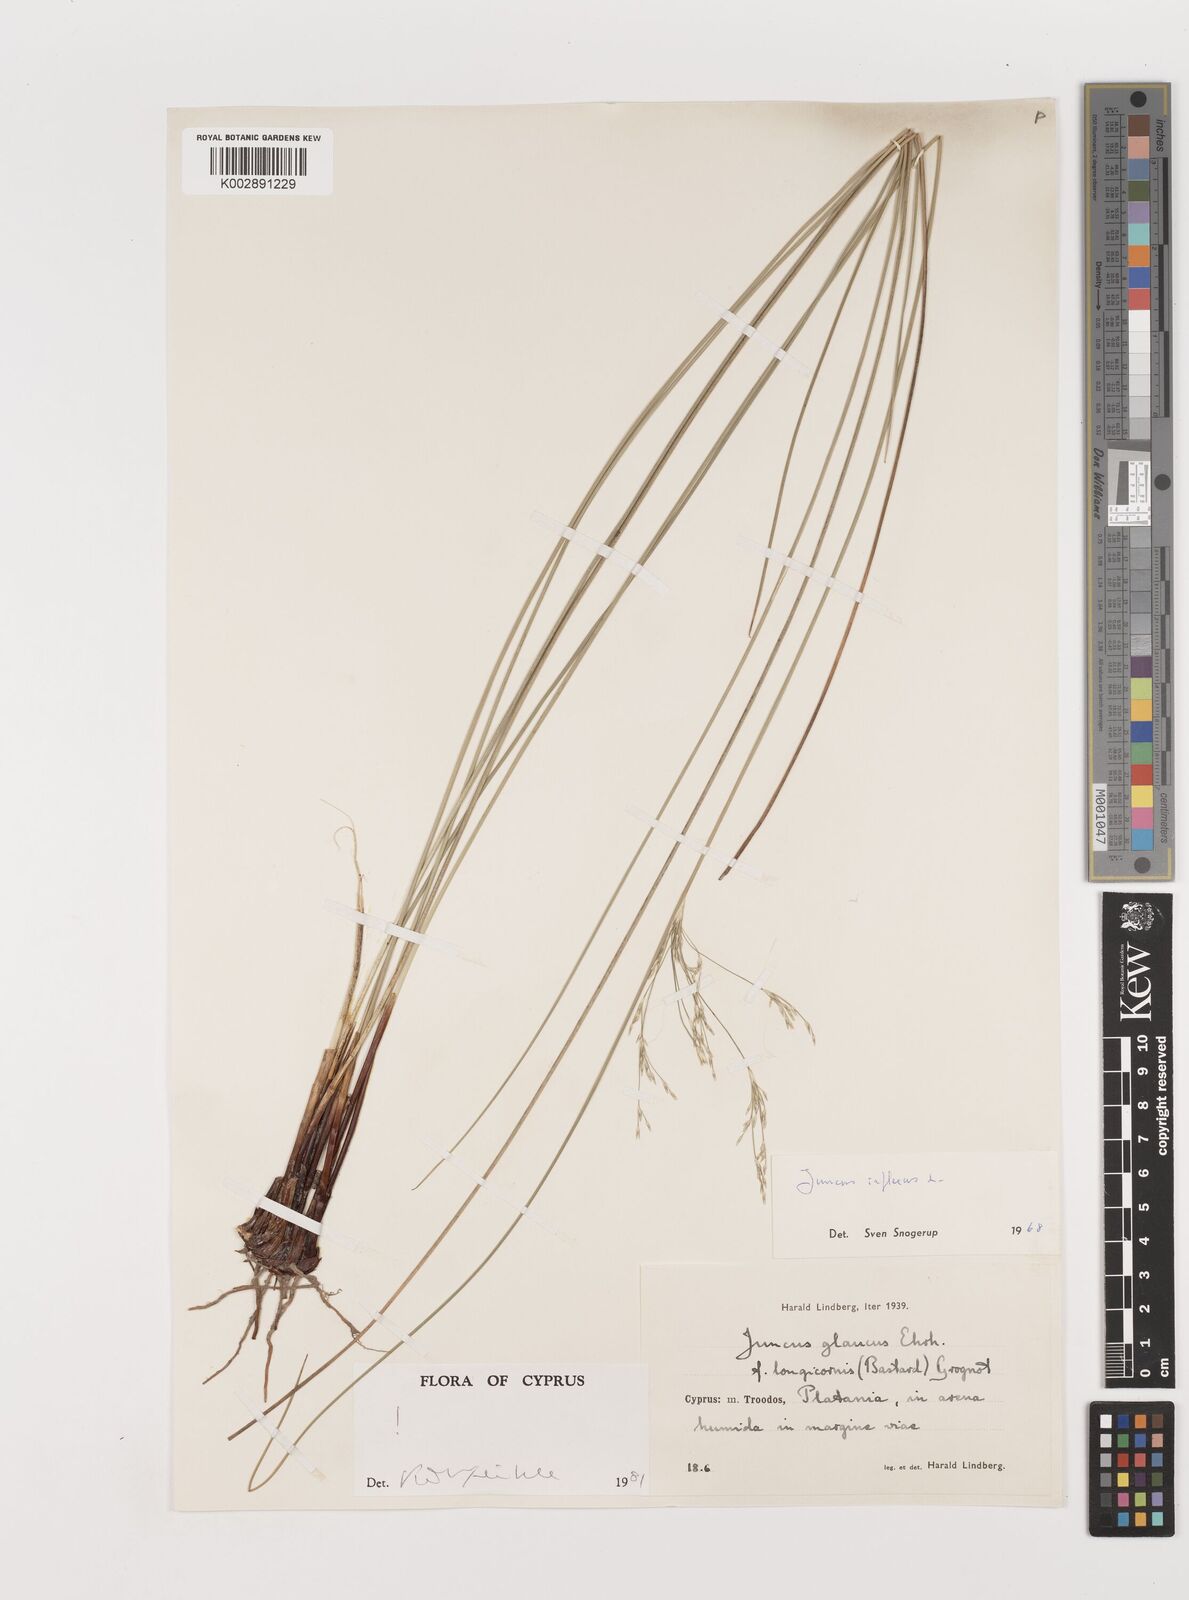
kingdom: Plantae
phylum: Tracheophyta
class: Liliopsida
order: Poales
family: Juncaceae
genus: Juncus
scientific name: Juncus inflexus
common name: Hard rush
